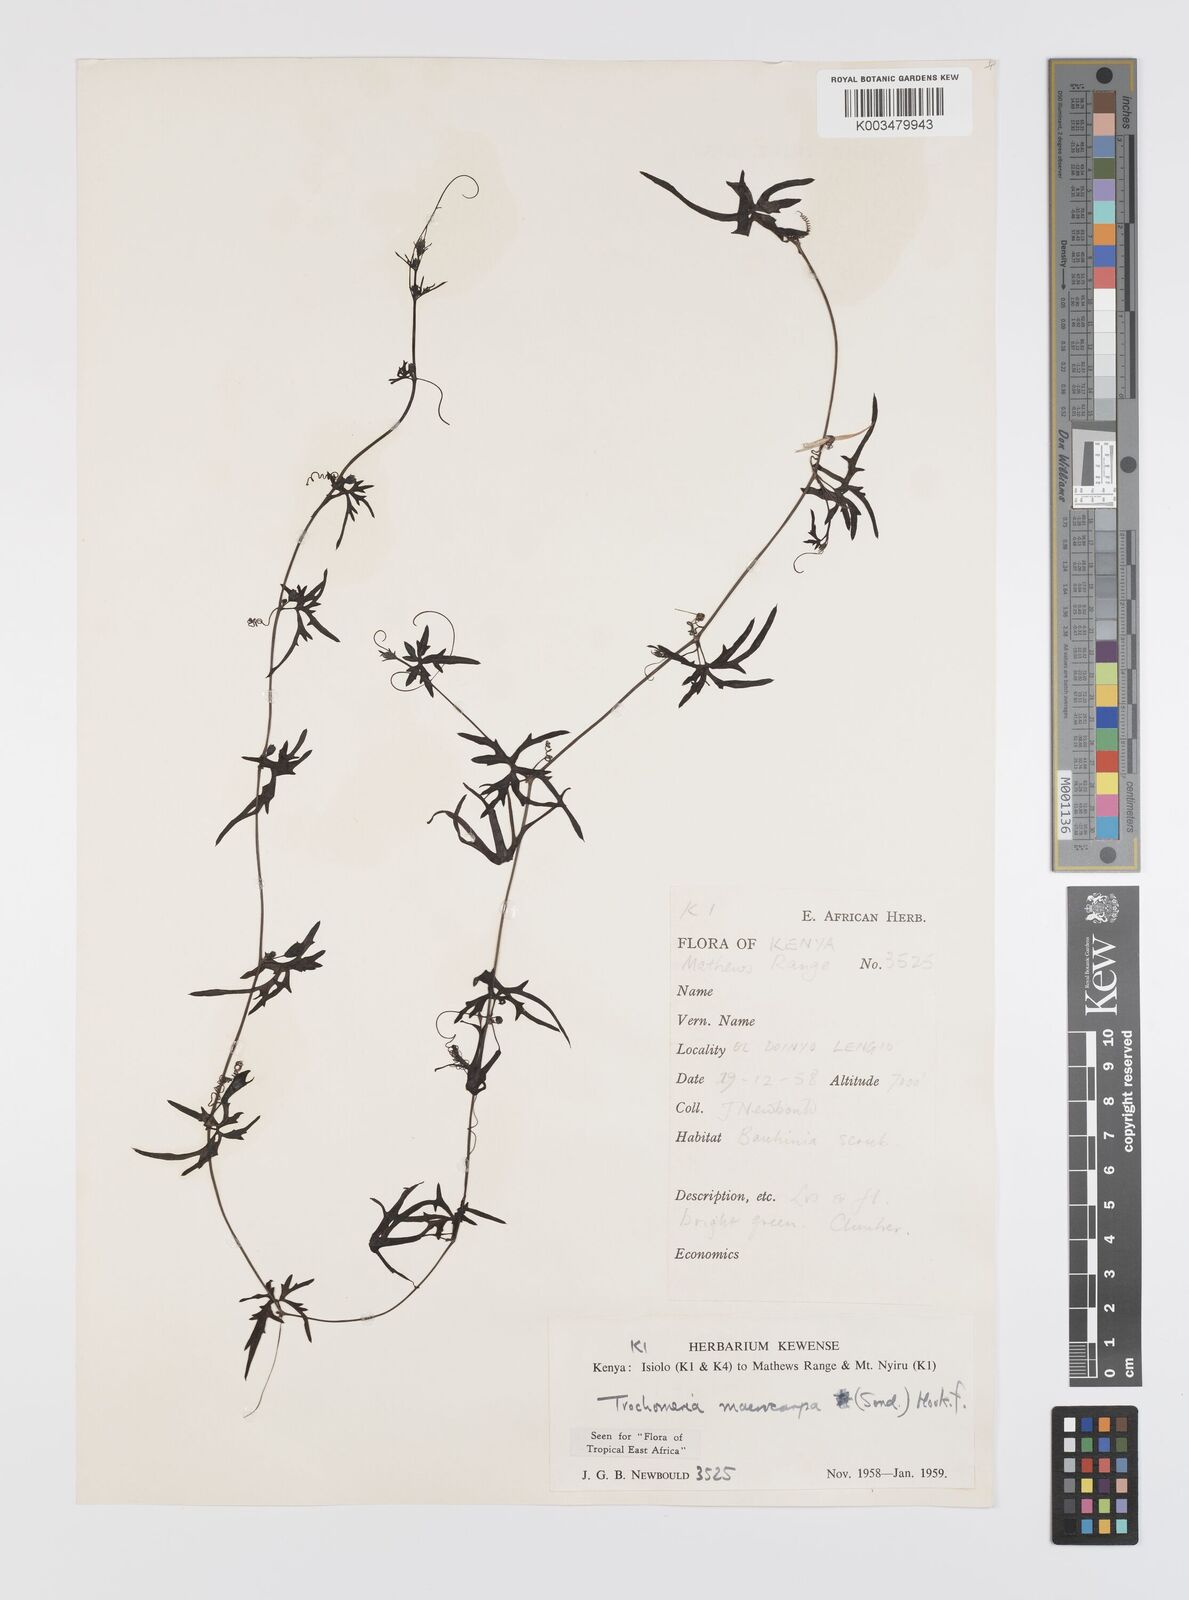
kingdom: Plantae
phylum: Tracheophyta
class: Magnoliopsida
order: Cucurbitales
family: Cucurbitaceae
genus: Trochomeria
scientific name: Trochomeria macrocarpa
